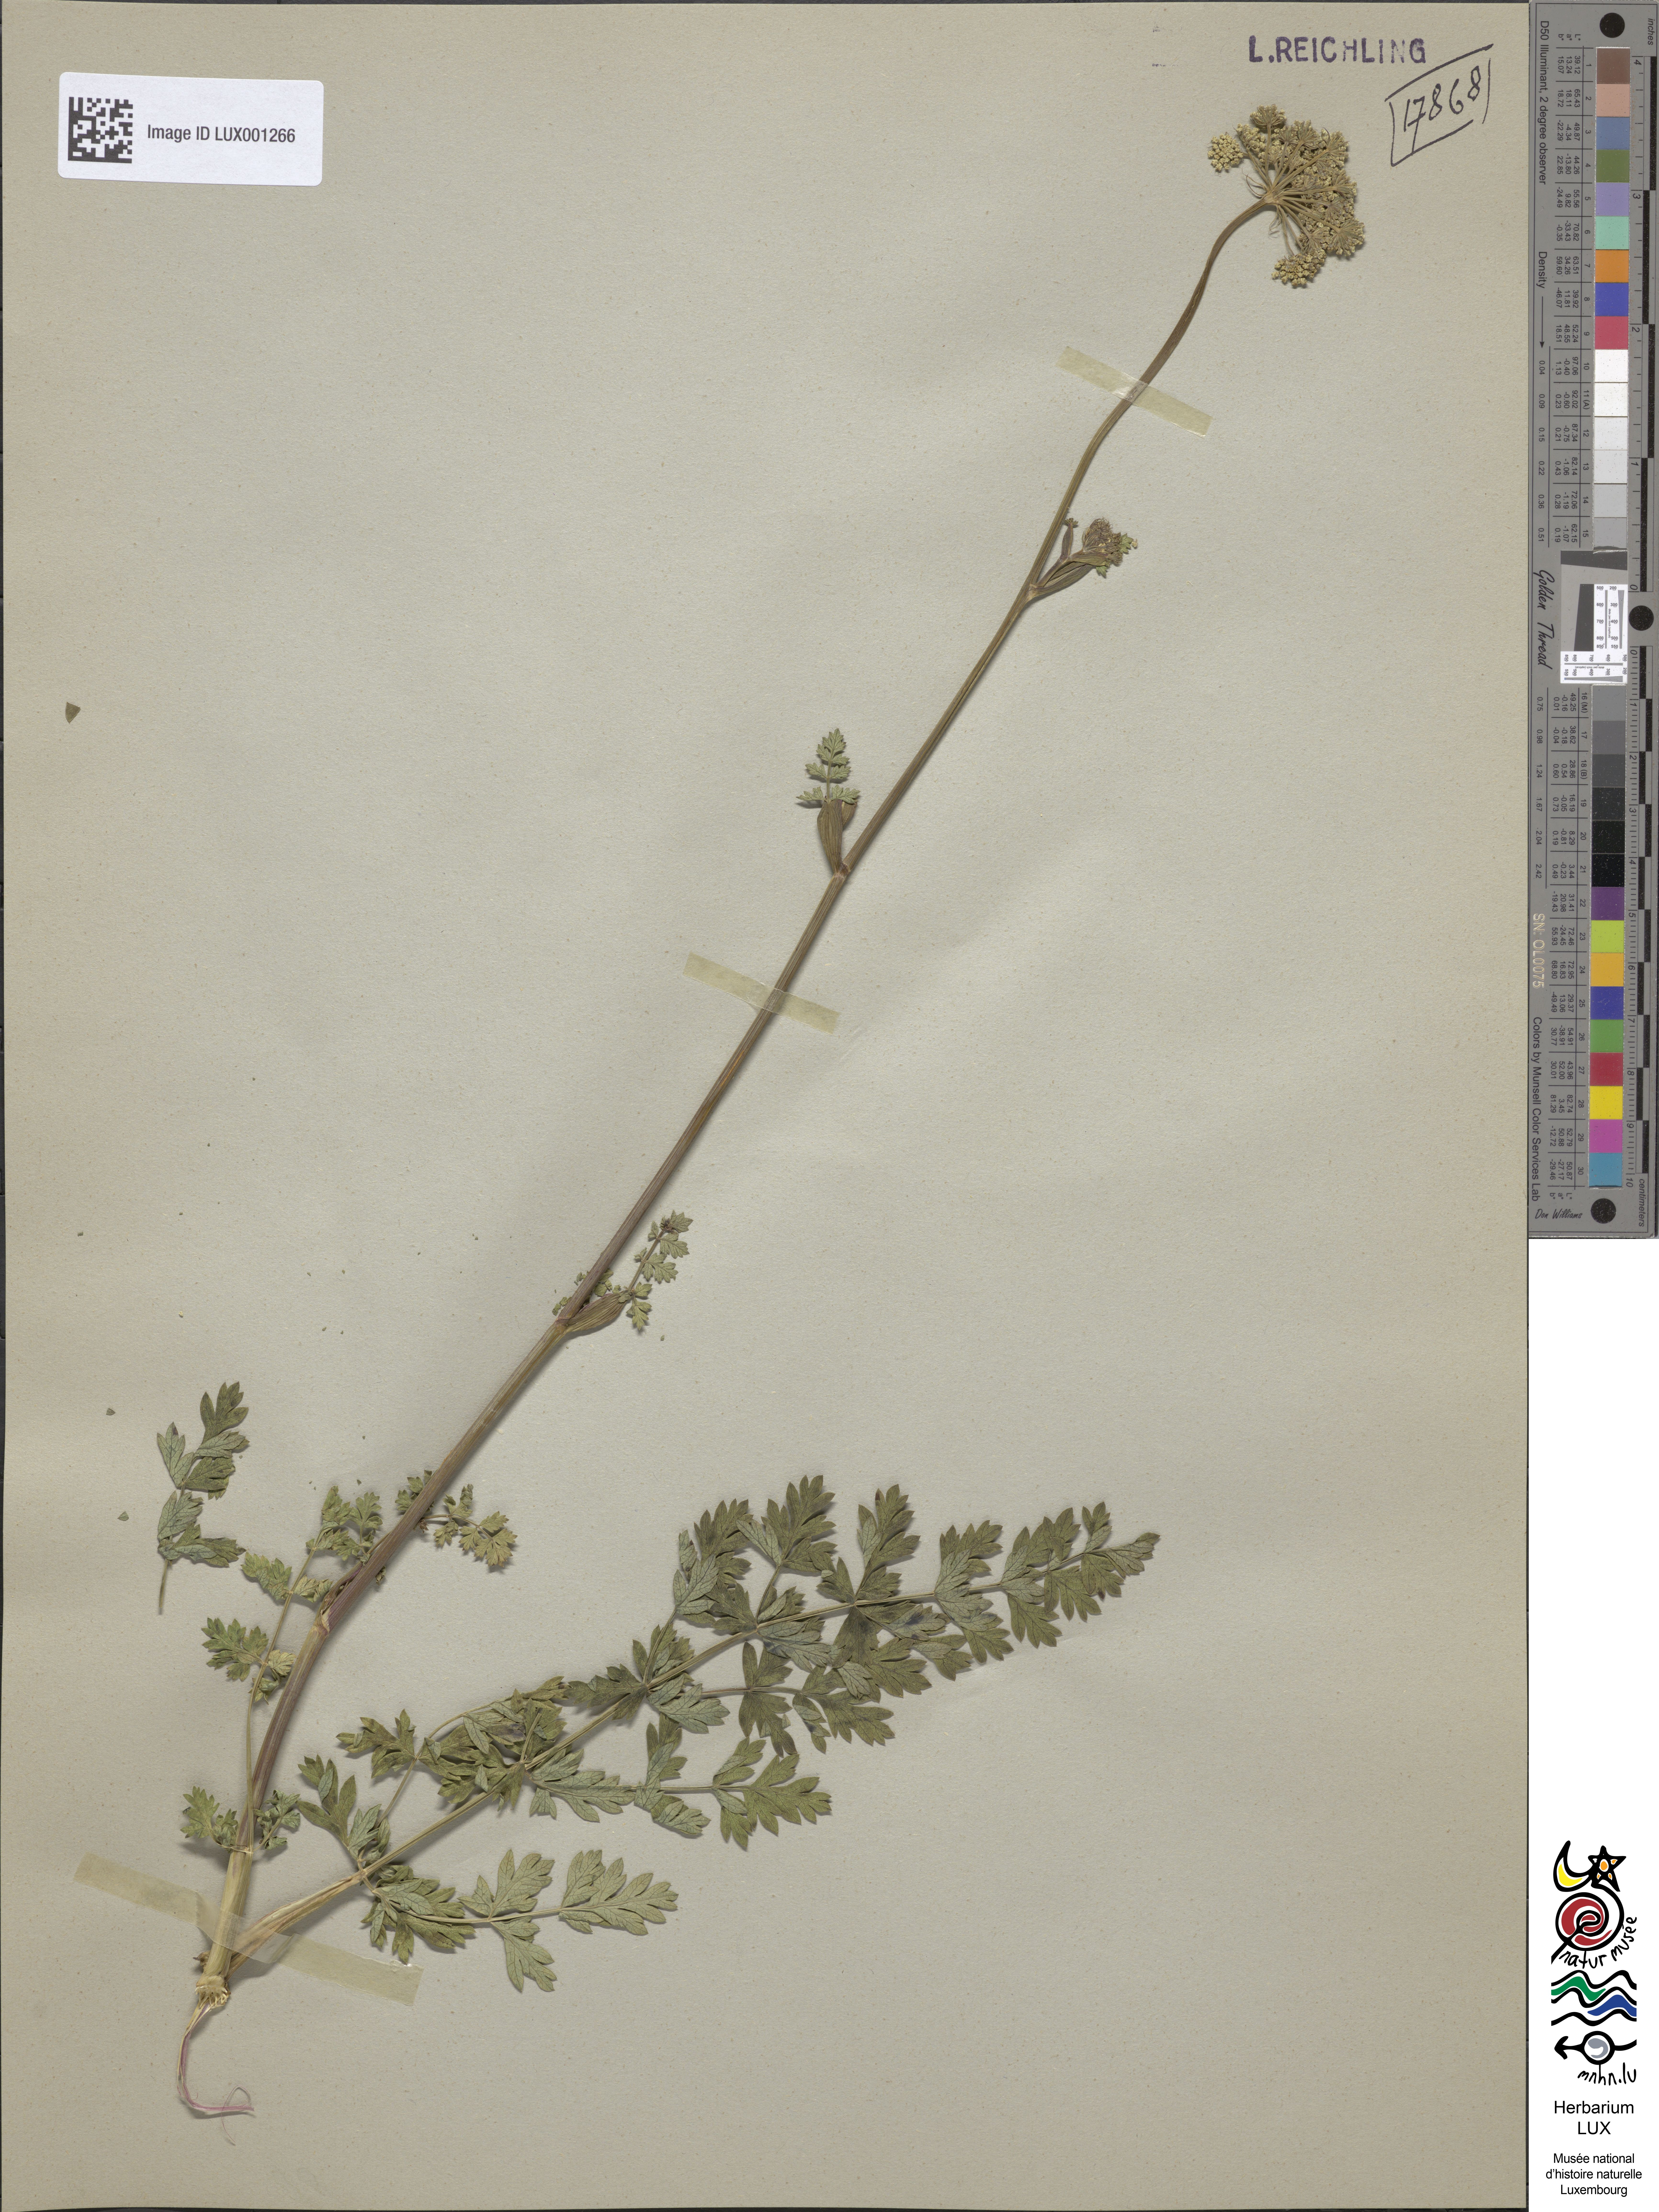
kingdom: Plantae
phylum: Tracheophyta
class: Magnoliopsida
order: Apiales
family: Apiaceae
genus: Seseli
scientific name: Seseli libanotis
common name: Mooncarrot
